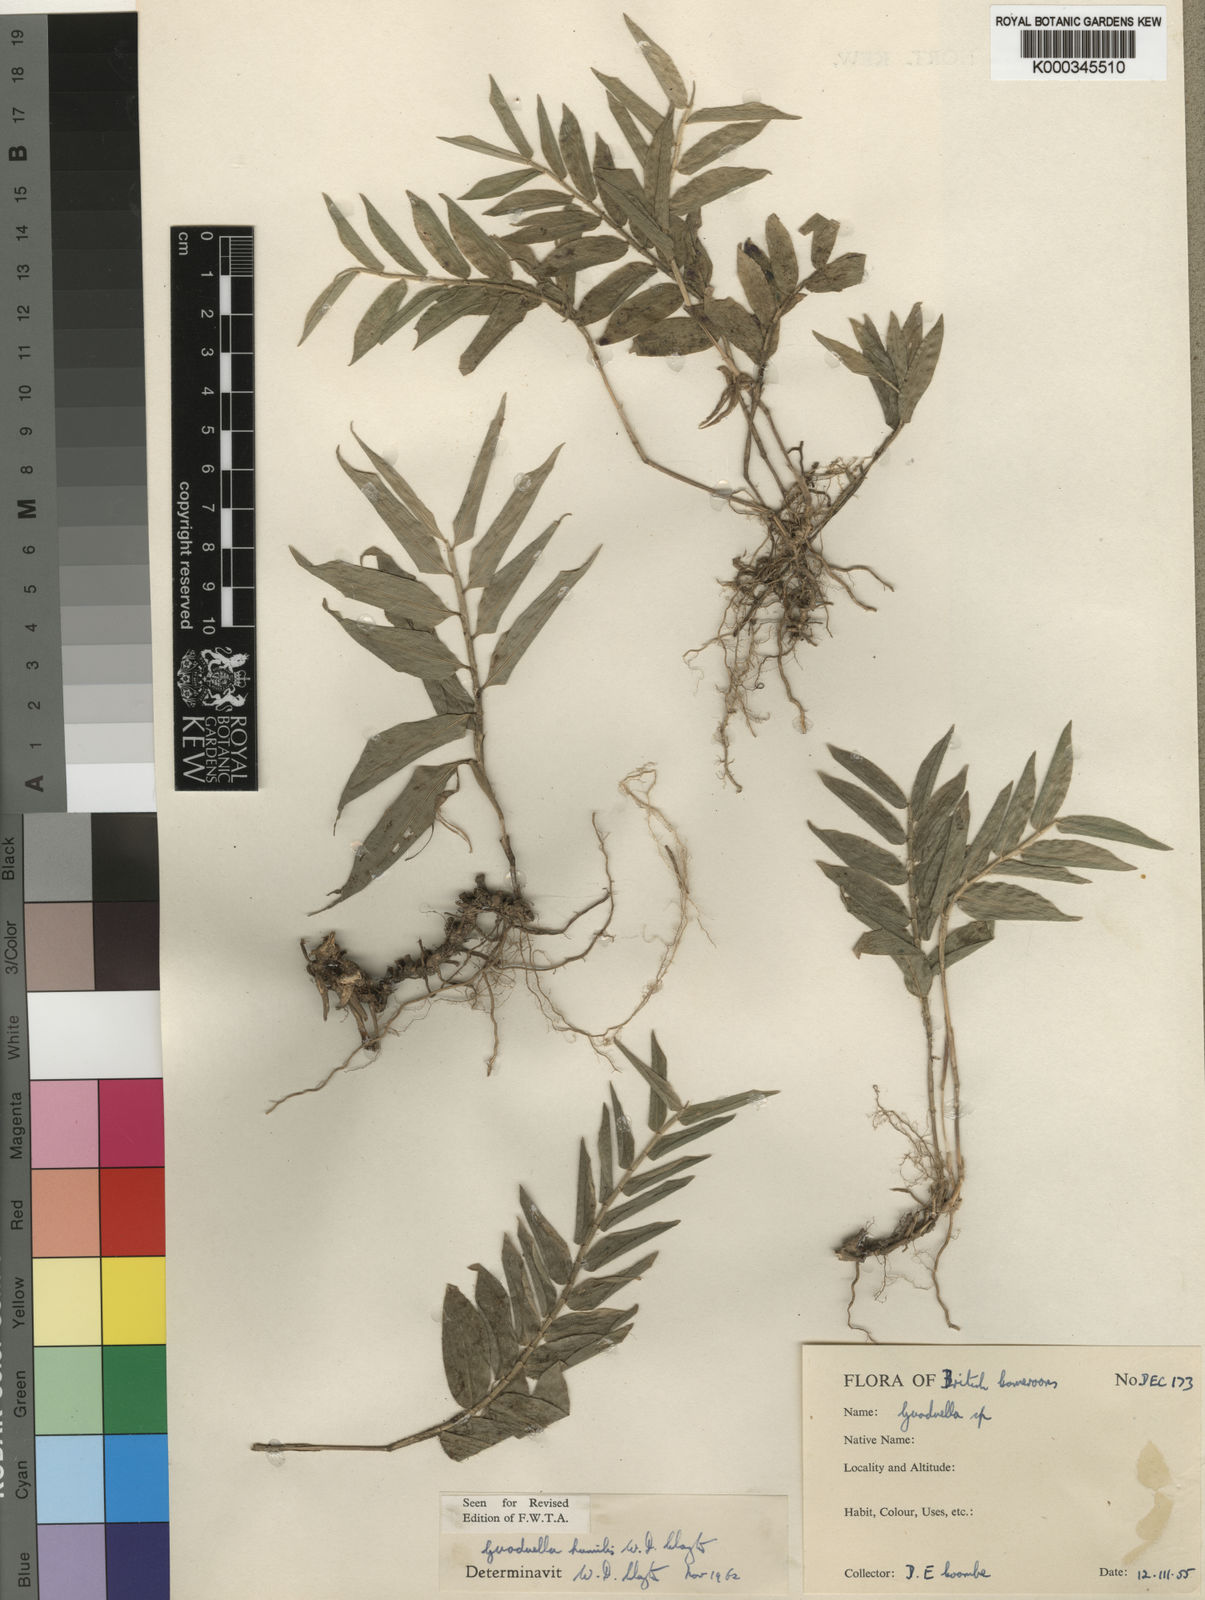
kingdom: Plantae
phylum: Tracheophyta
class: Liliopsida
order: Poales
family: Poaceae
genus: Guaduella
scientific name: Guaduella humilis
